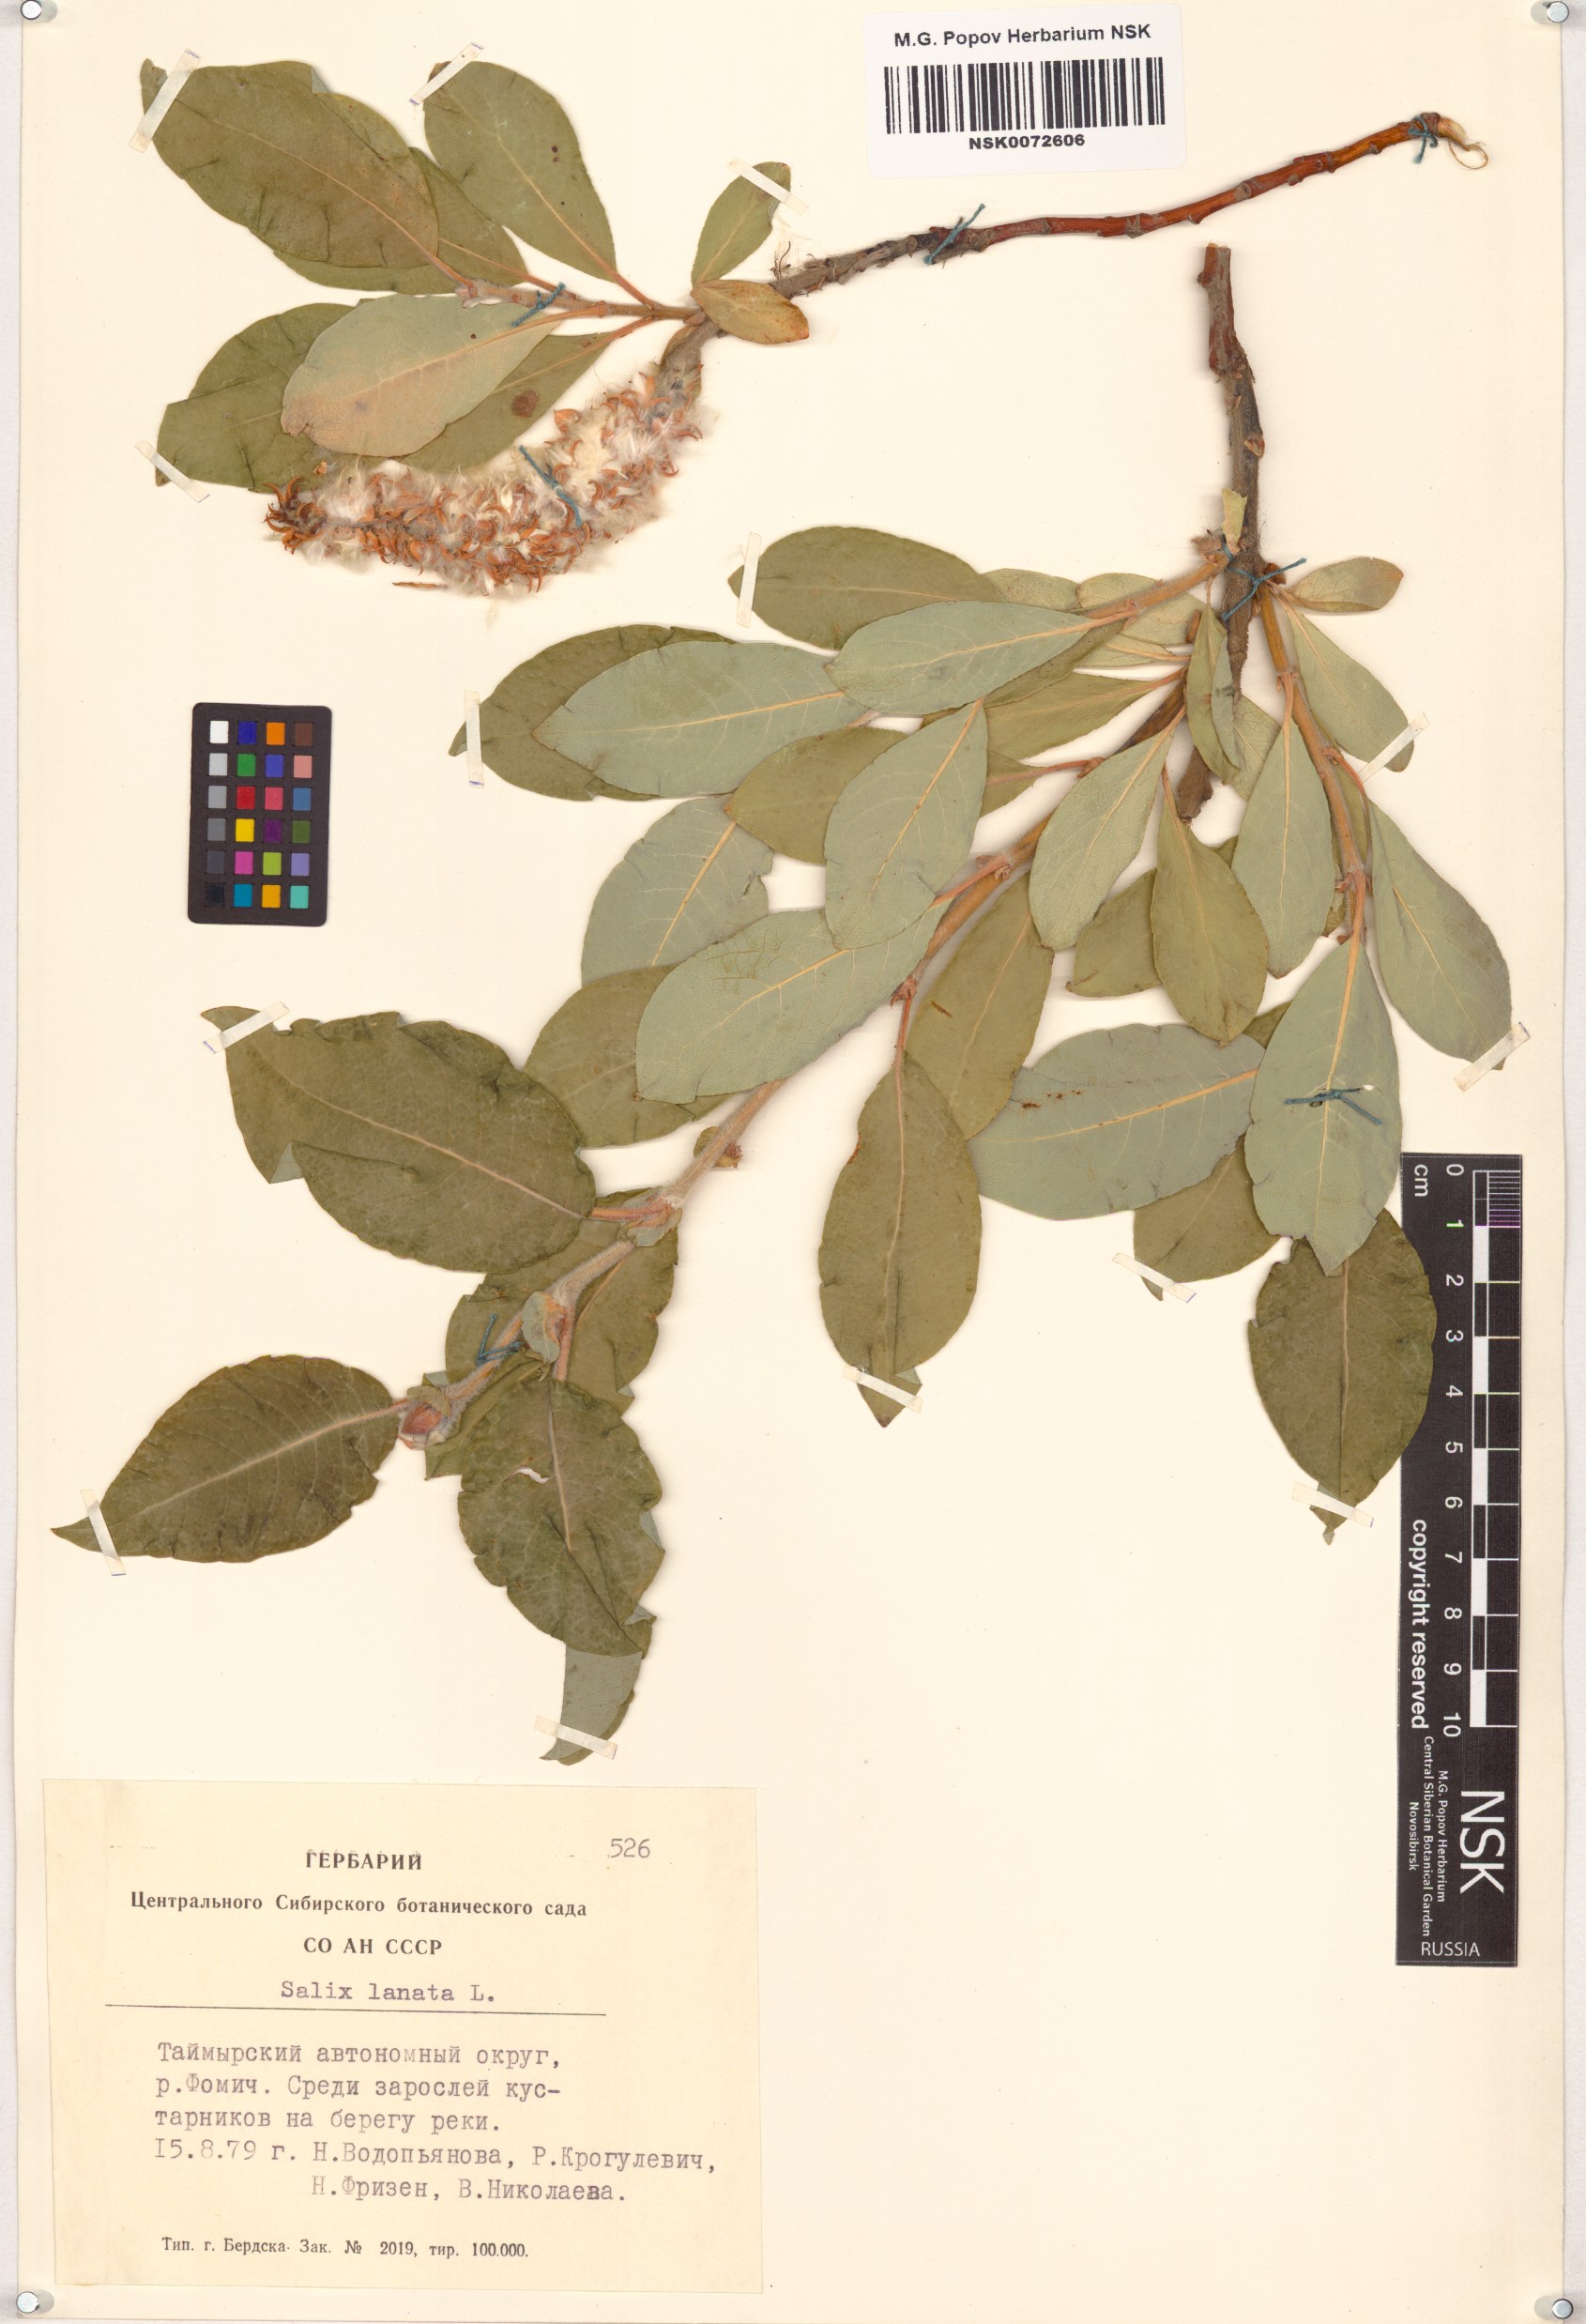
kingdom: Plantae
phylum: Tracheophyta
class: Magnoliopsida
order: Malpighiales
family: Salicaceae
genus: Salix
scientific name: Salix lanata
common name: Woolly willow
